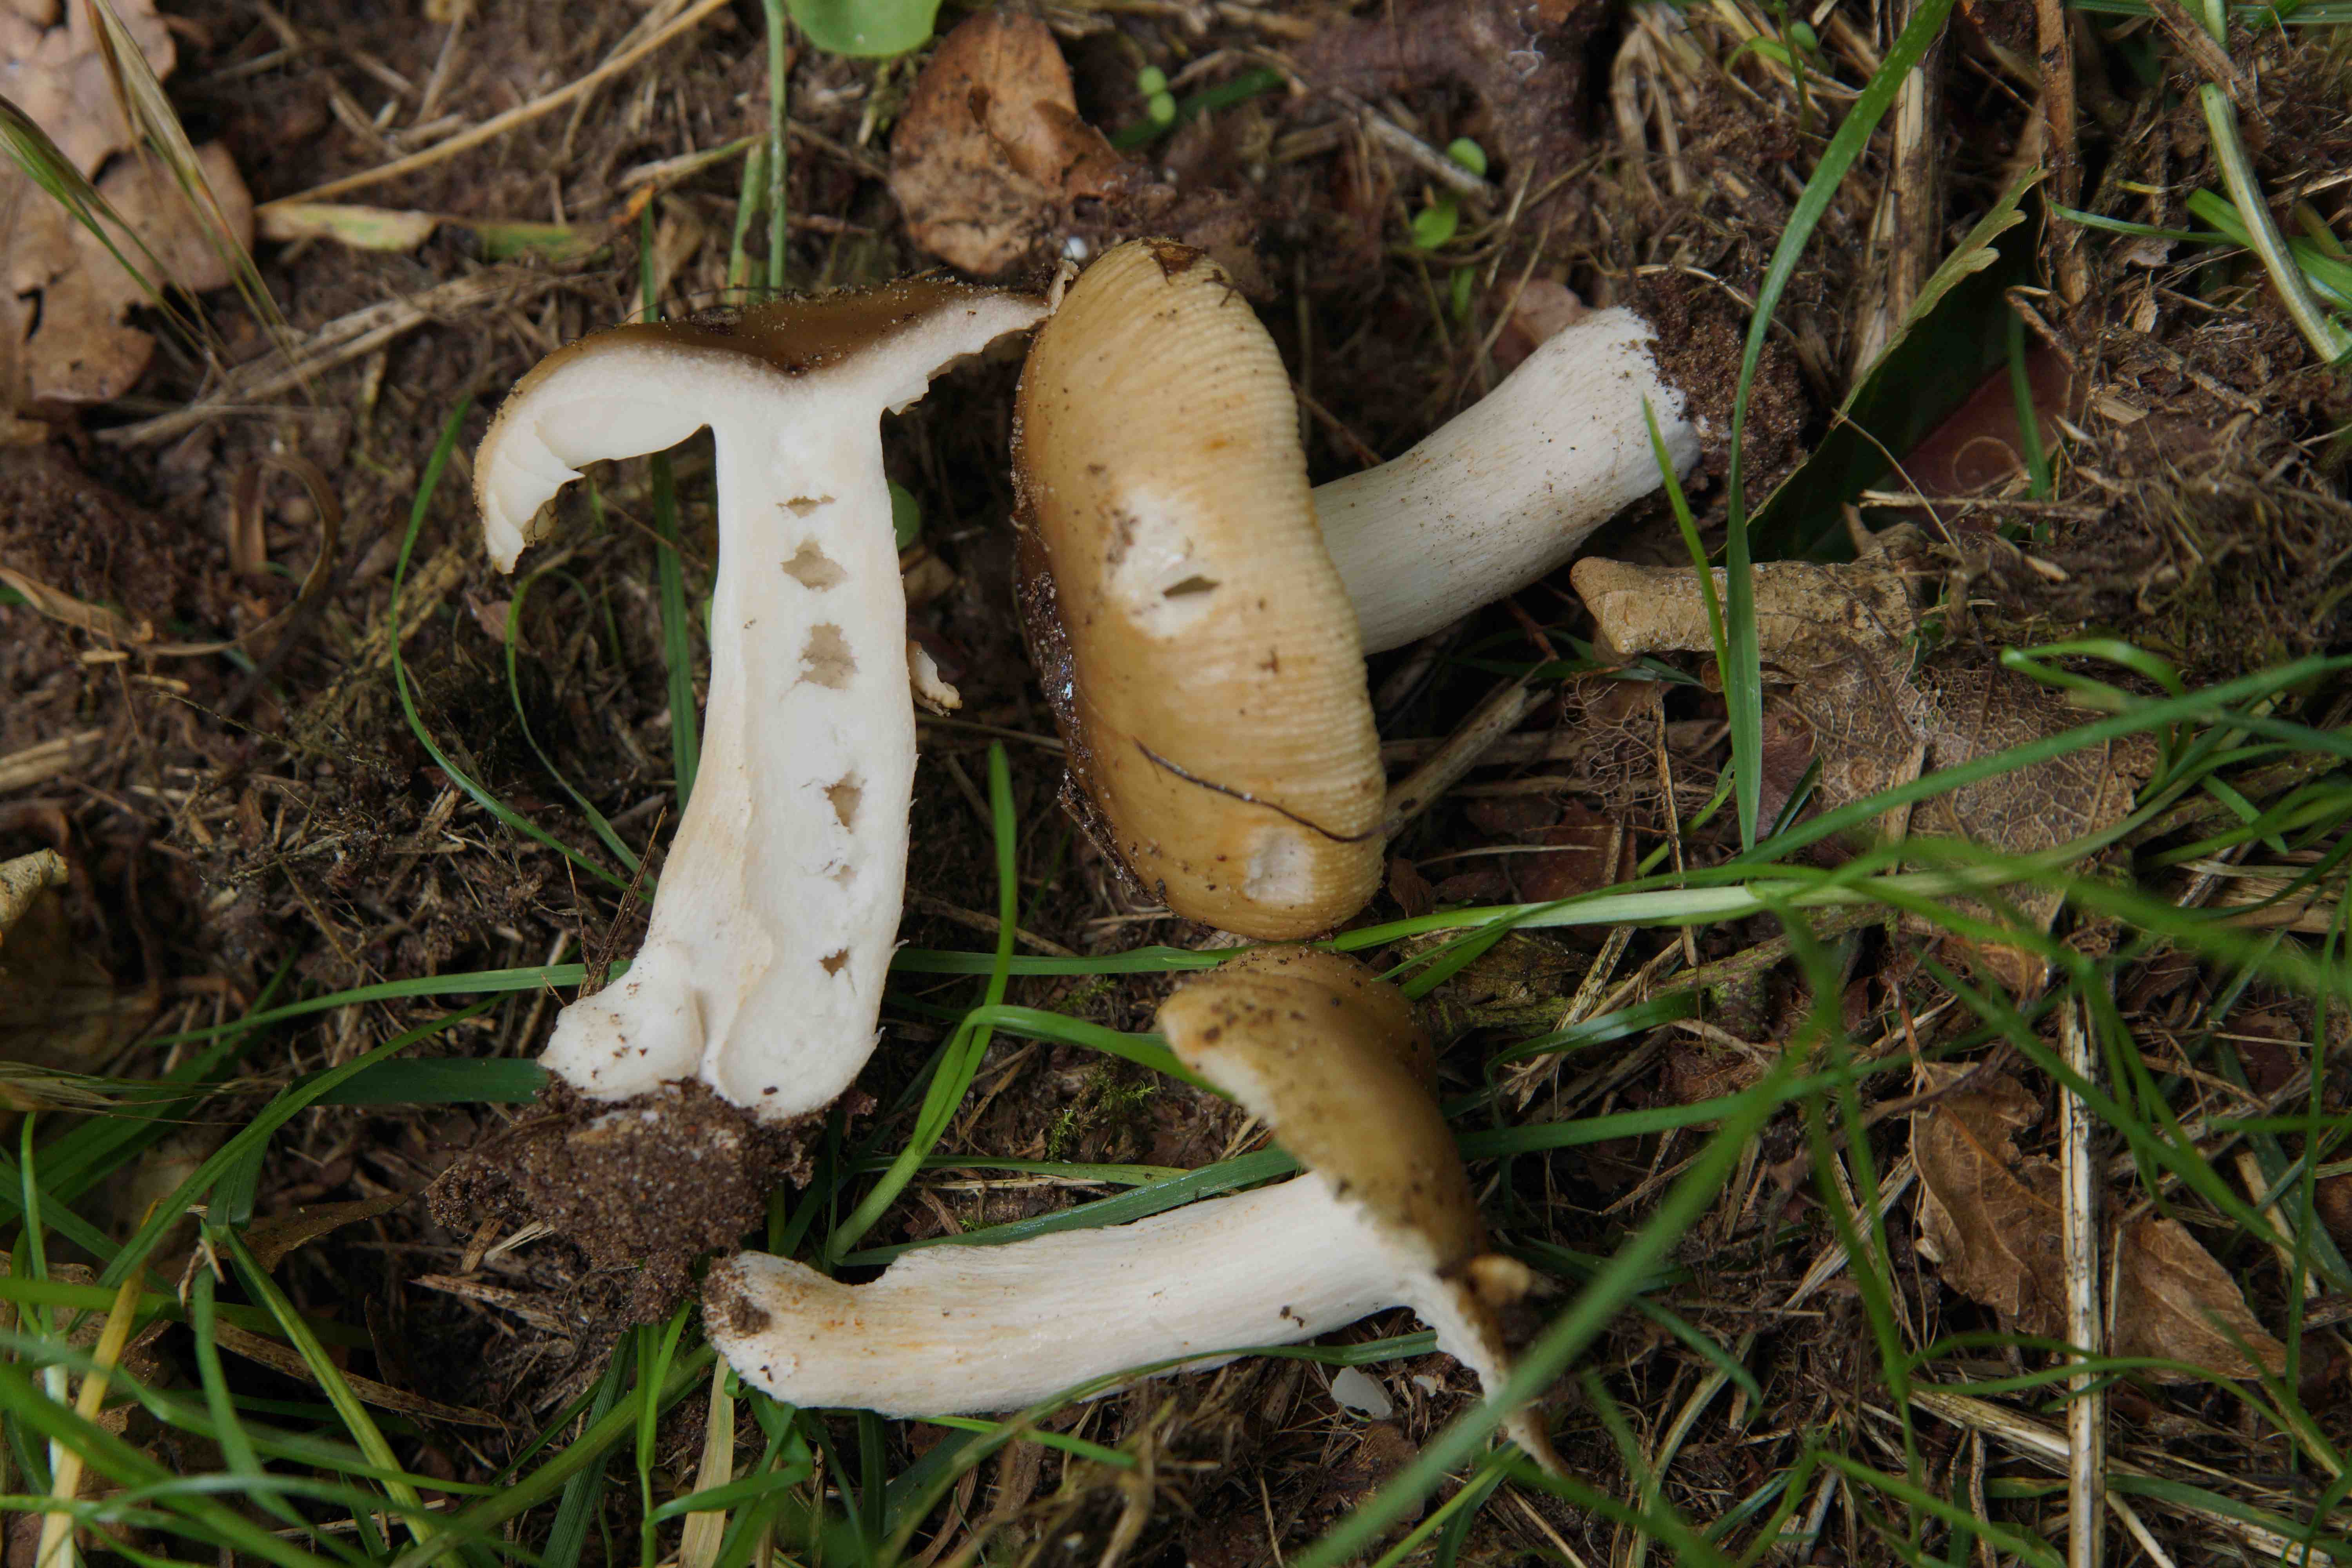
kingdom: Fungi
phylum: Basidiomycota
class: Agaricomycetes
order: Russulales
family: Russulaceae
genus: Russula
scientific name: Russula recondita
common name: mild kam-skørhat
